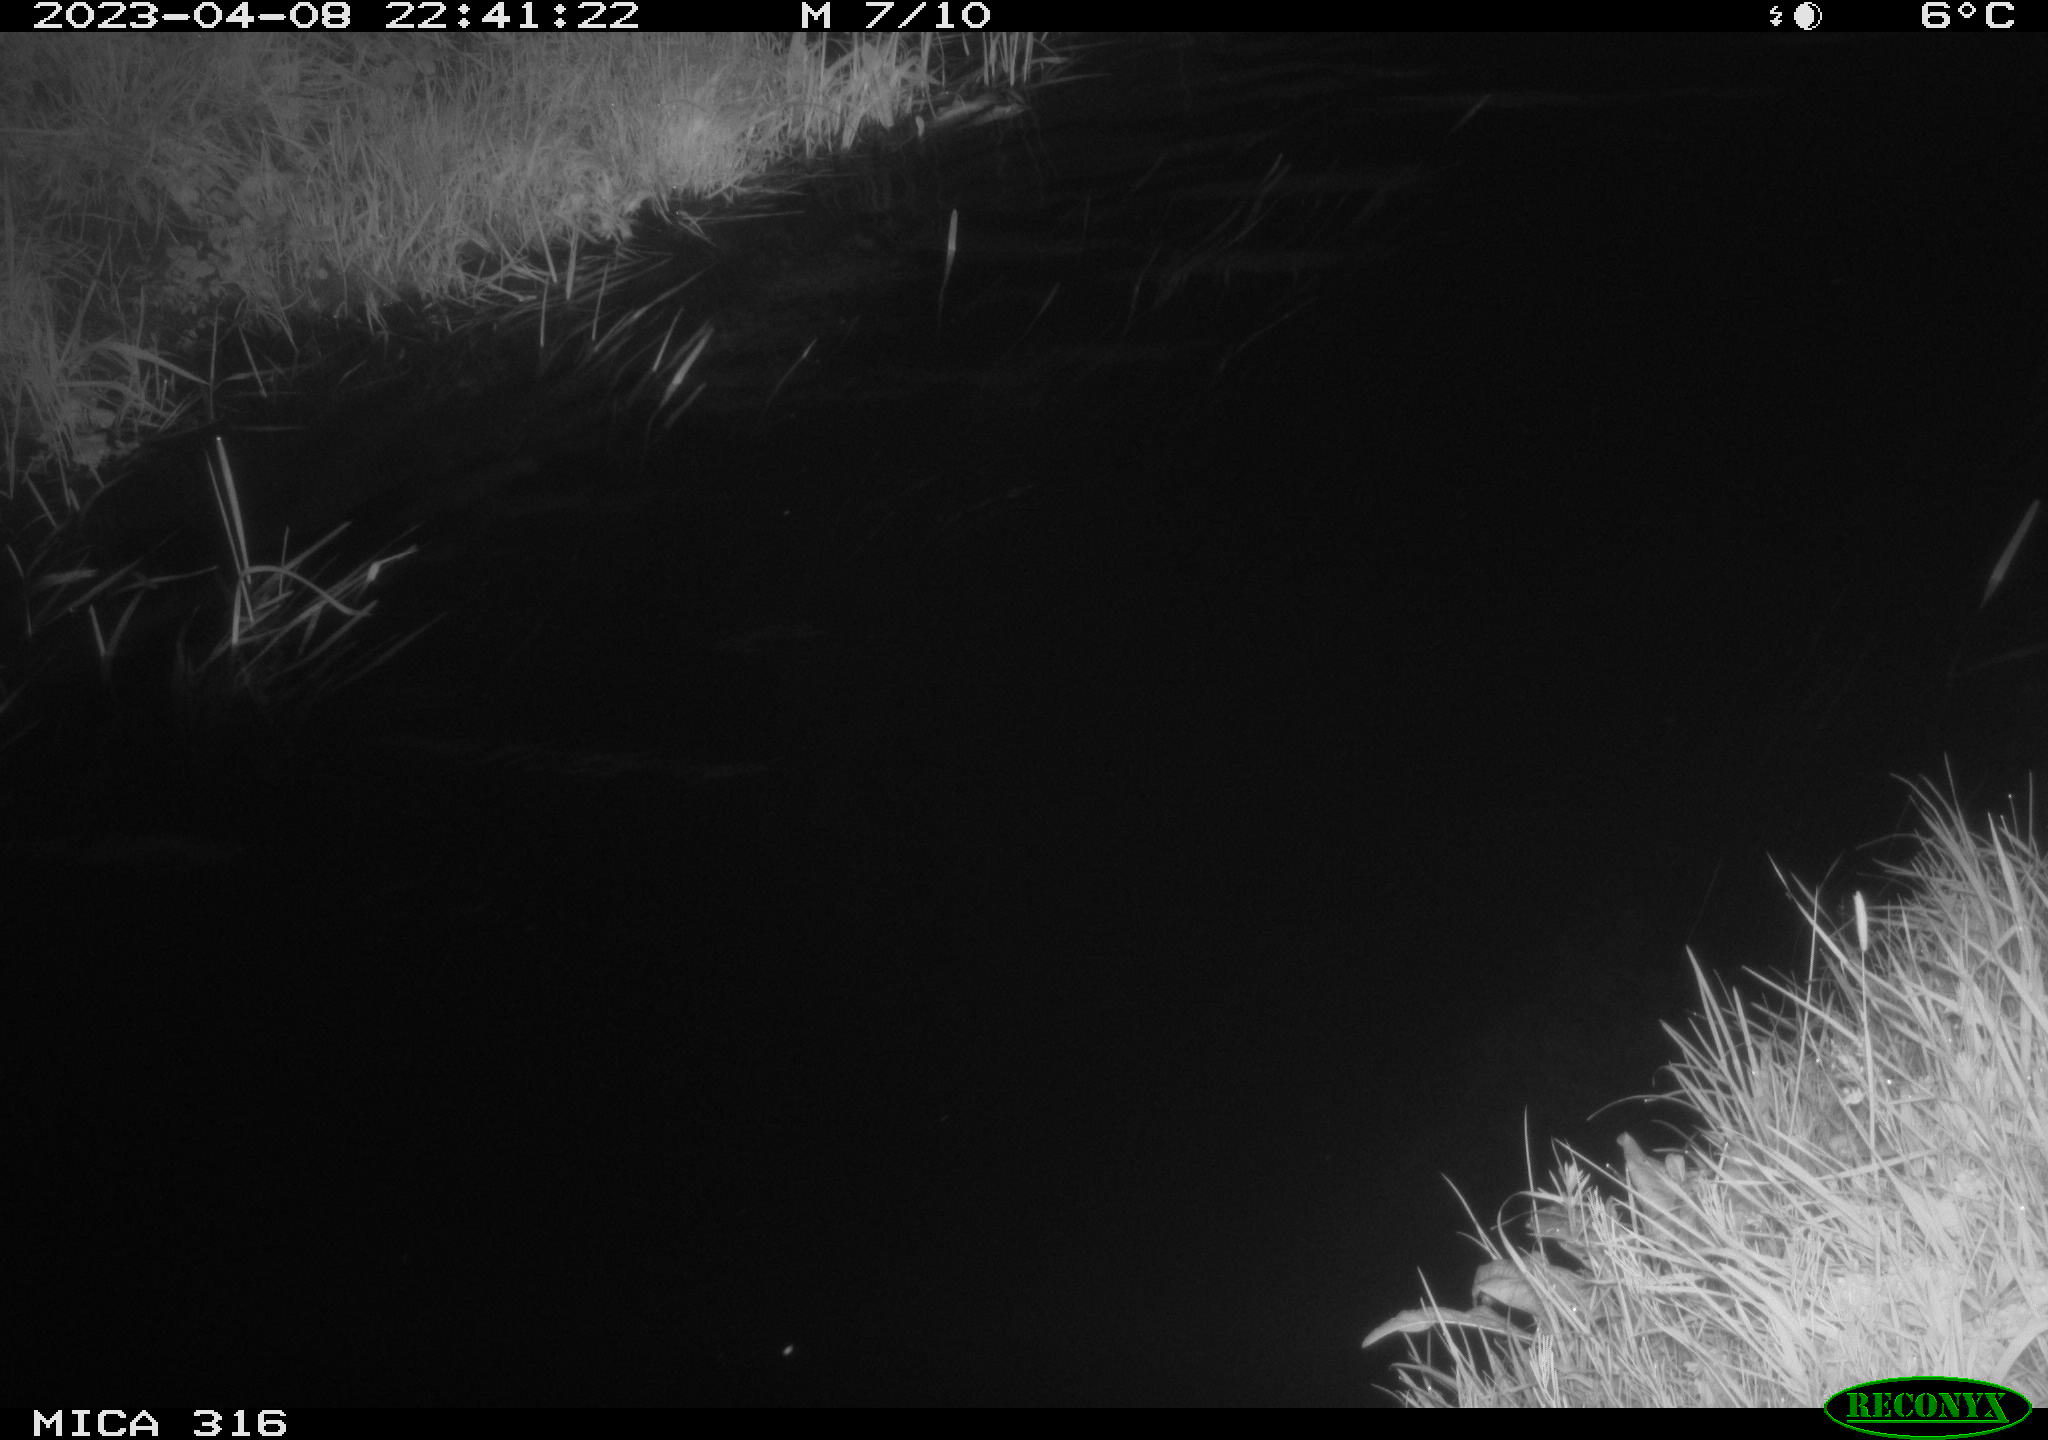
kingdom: Animalia
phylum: Chordata
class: Aves
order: Anseriformes
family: Anatidae
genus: Anas
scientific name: Anas
